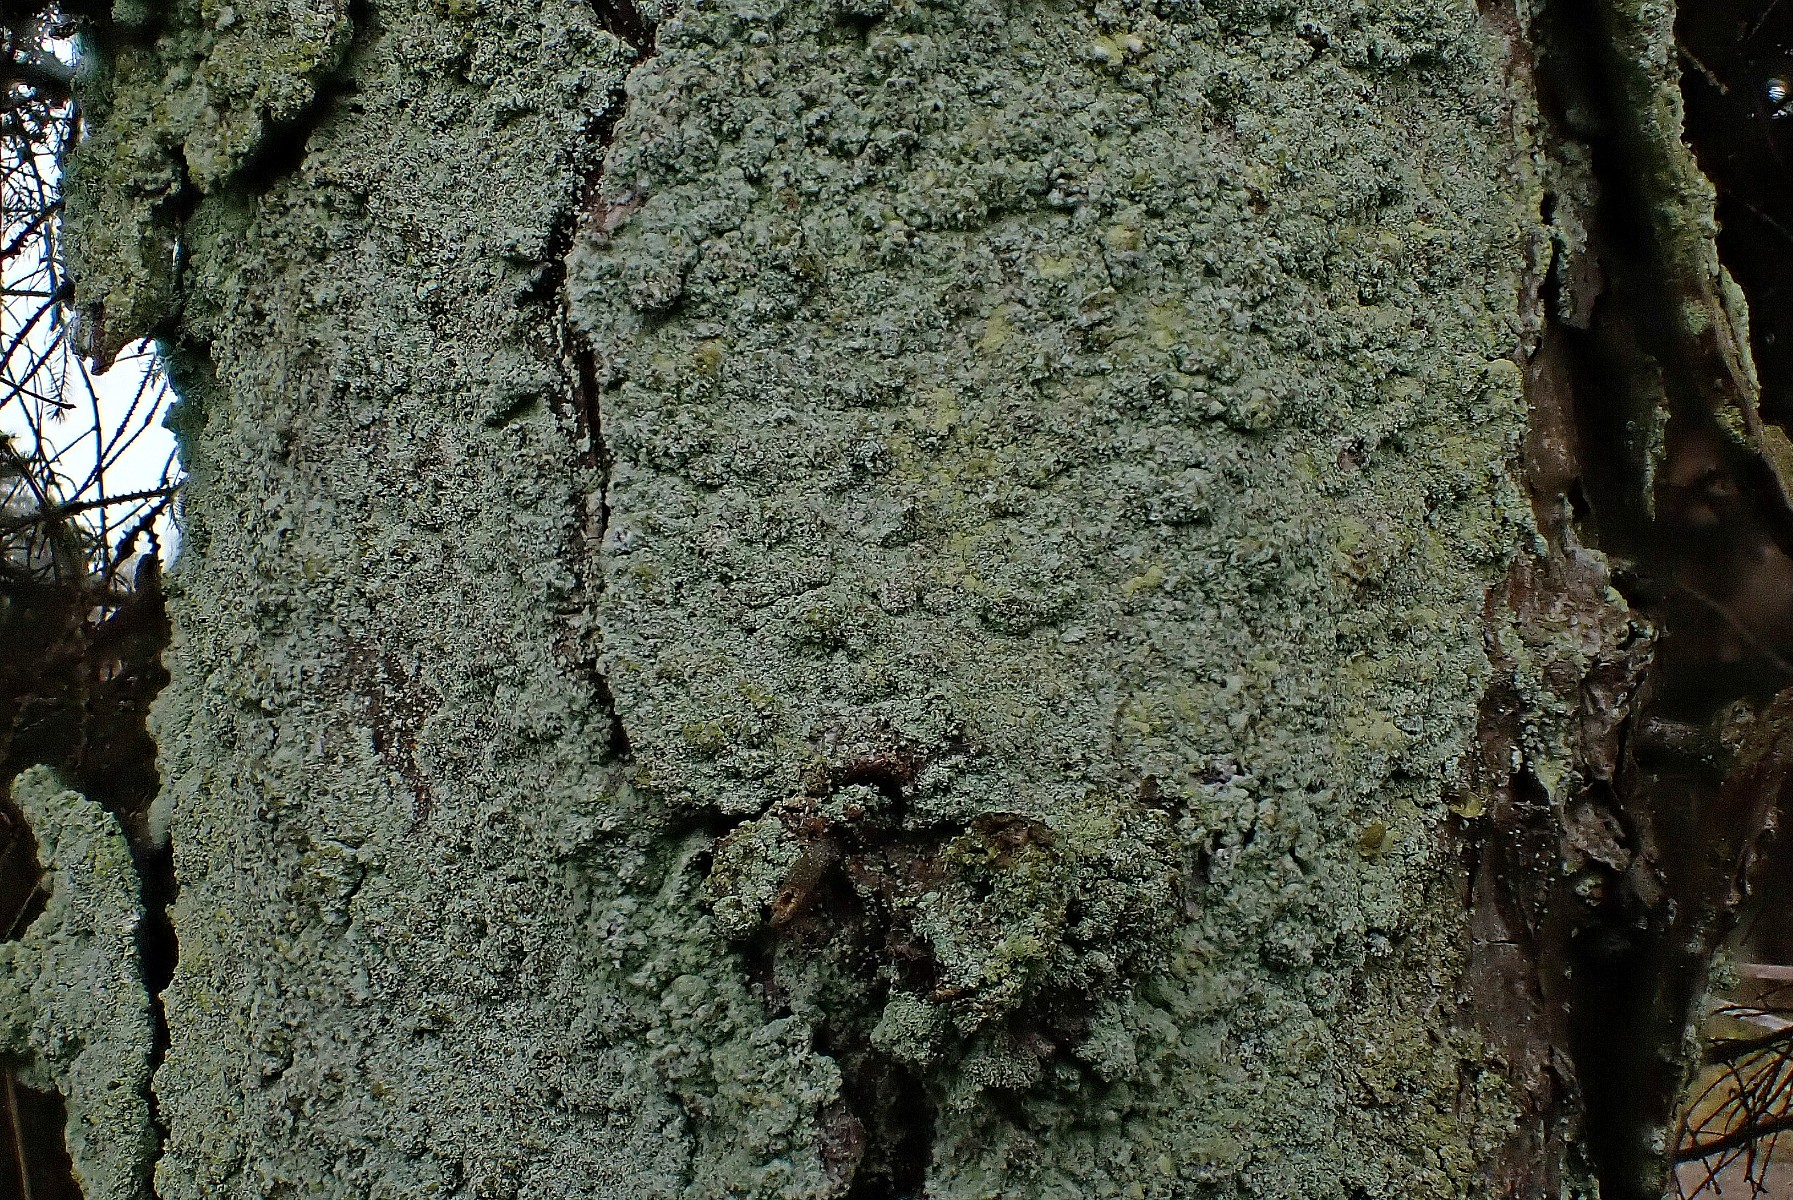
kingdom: Fungi
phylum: Ascomycota
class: Lecanoromycetes
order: Lecanorales
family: Stereocaulaceae
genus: Lepraria
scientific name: Lepraria incana
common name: almindelig støvlav
